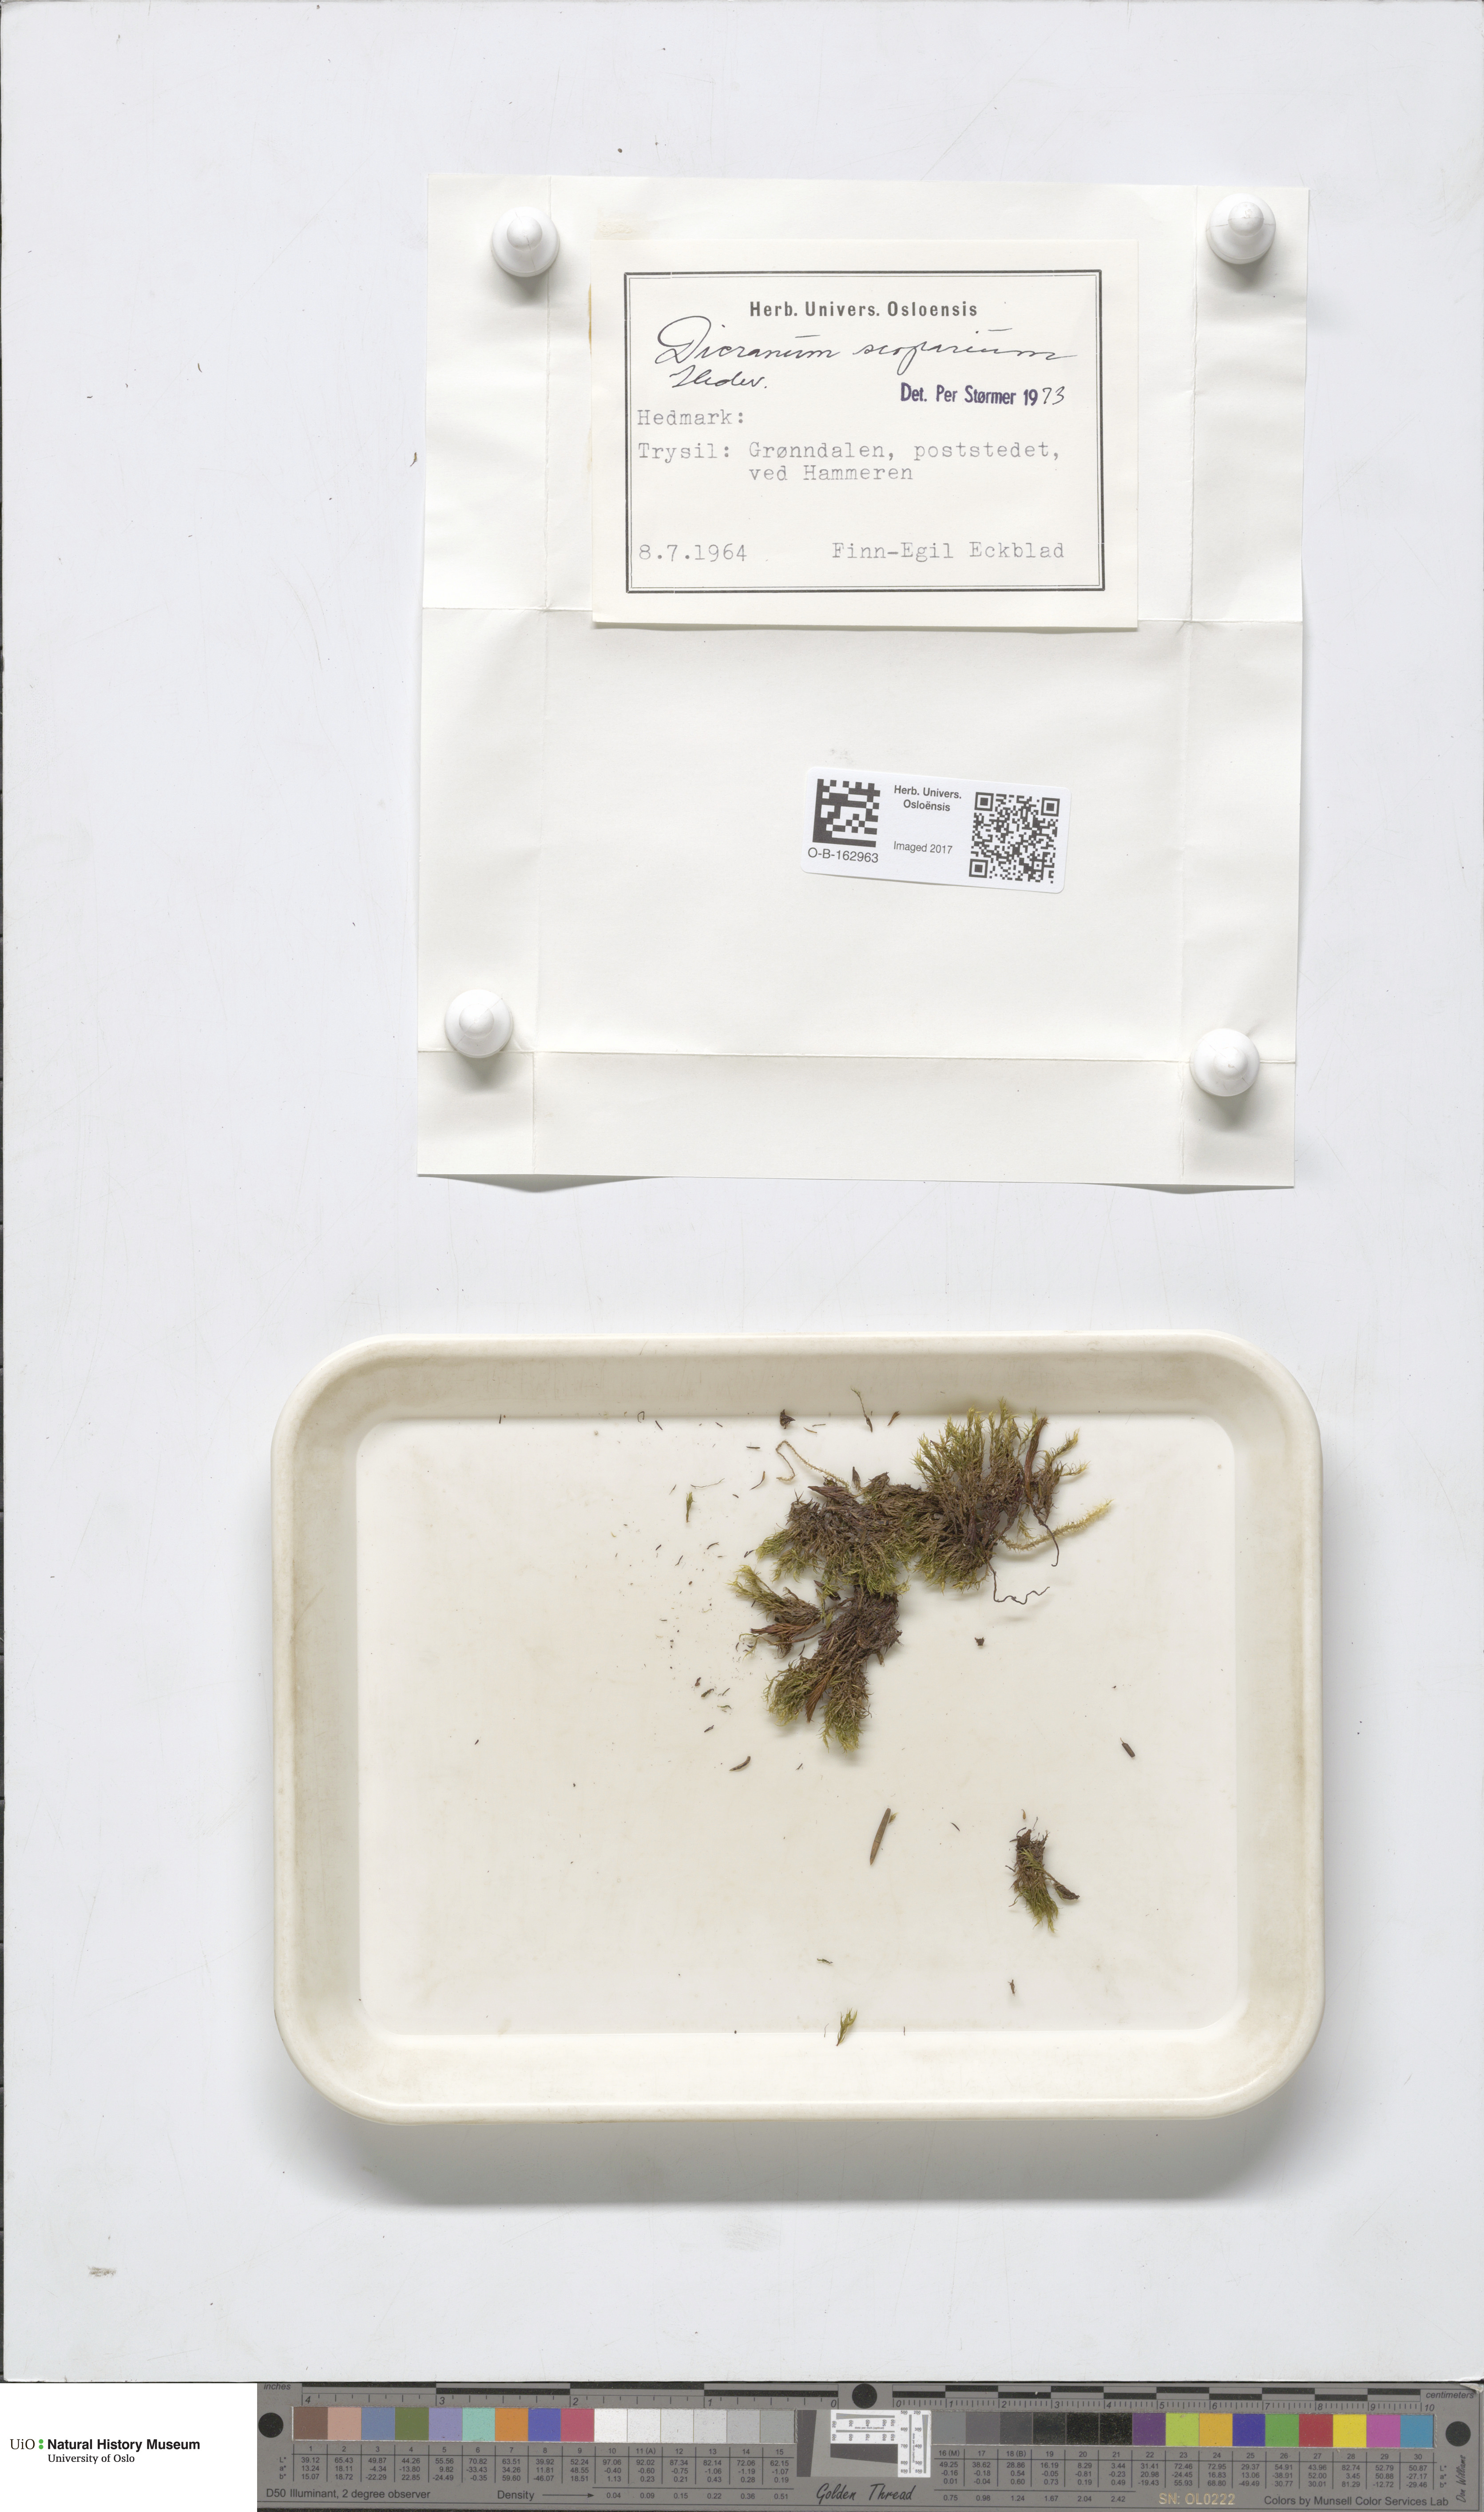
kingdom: Plantae
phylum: Bryophyta
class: Bryopsida
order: Dicranales
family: Dicranaceae
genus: Dicranum
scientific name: Dicranum scoparium
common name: Broom fork-moss
